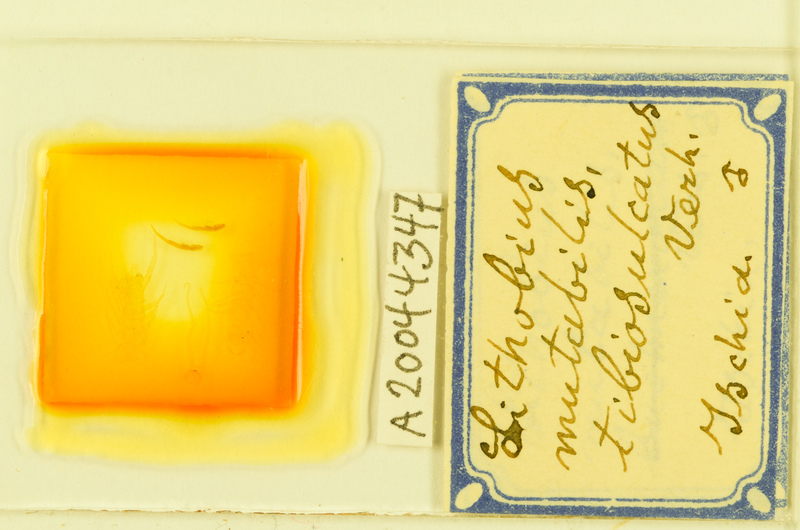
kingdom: Animalia
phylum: Arthropoda
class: Chilopoda
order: Lithobiomorpha
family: Lithobiidae
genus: Lithobius
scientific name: Lithobius mutabilis
